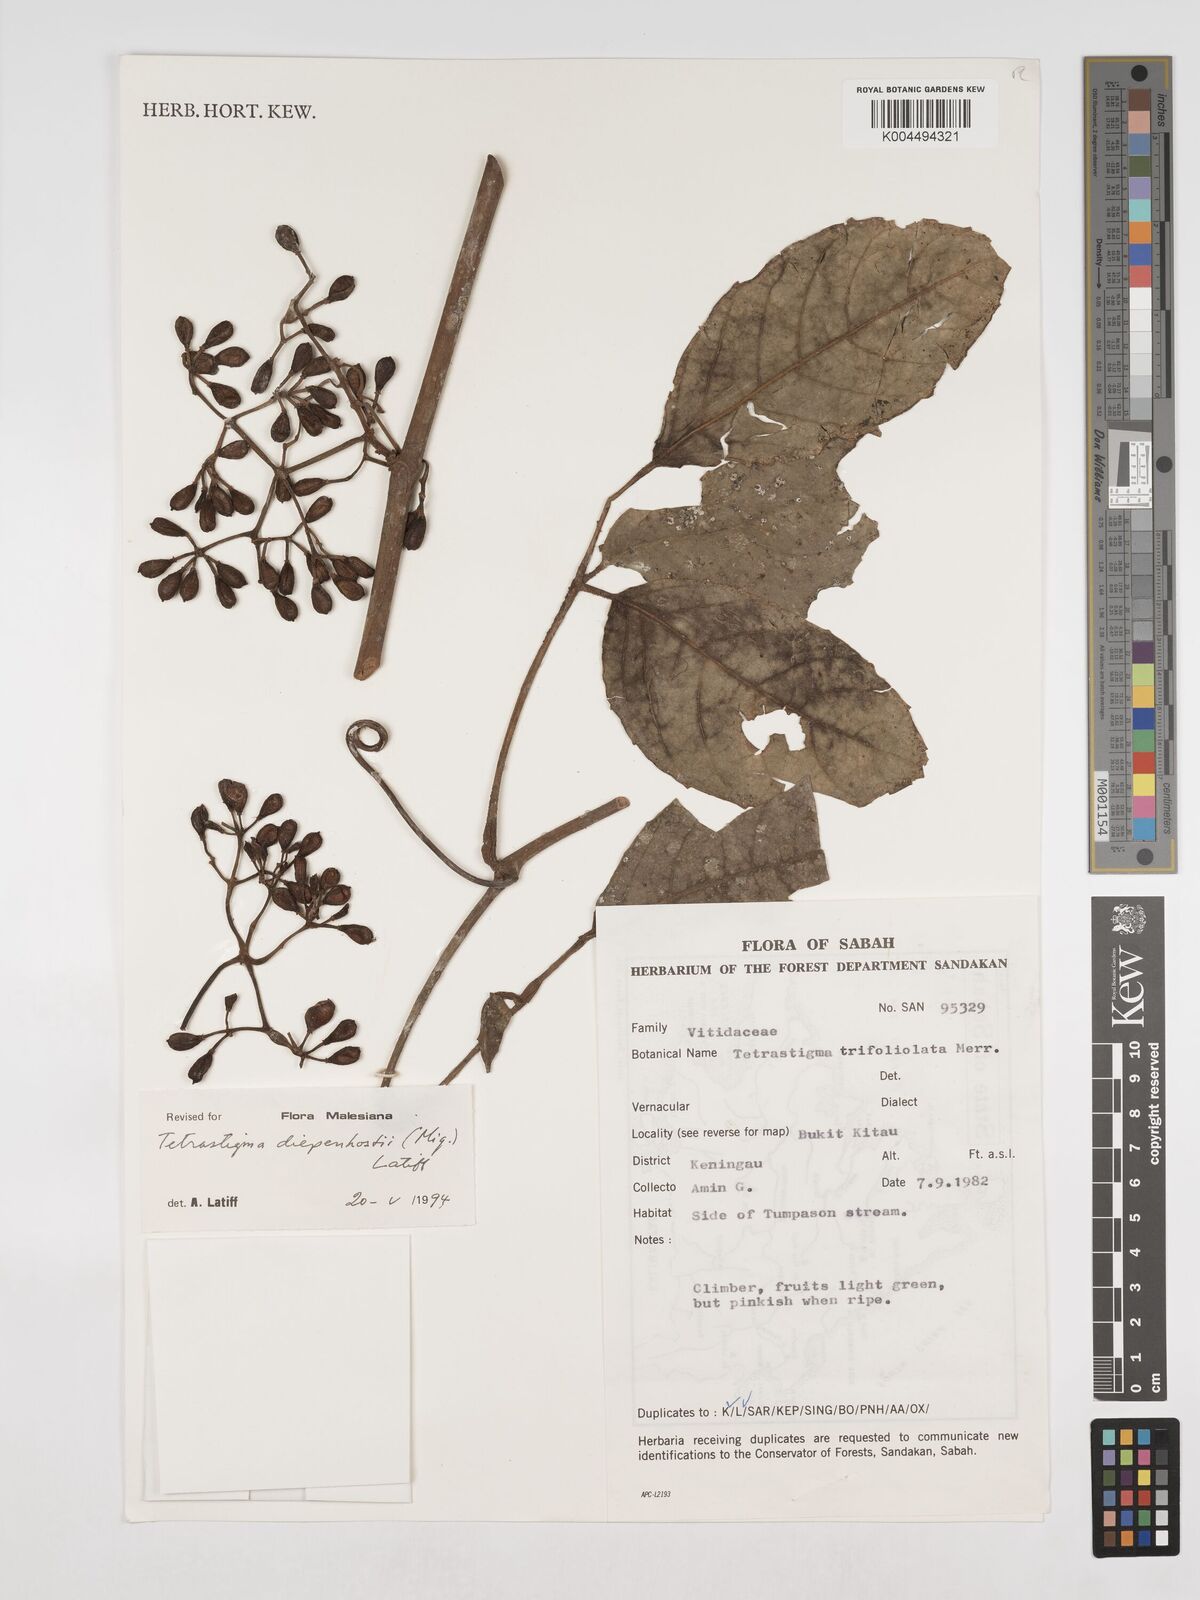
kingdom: Plantae
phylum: Tracheophyta
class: Magnoliopsida
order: Vitales
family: Vitaceae
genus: Tetrastigma
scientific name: Tetrastigma trifoliolatum
